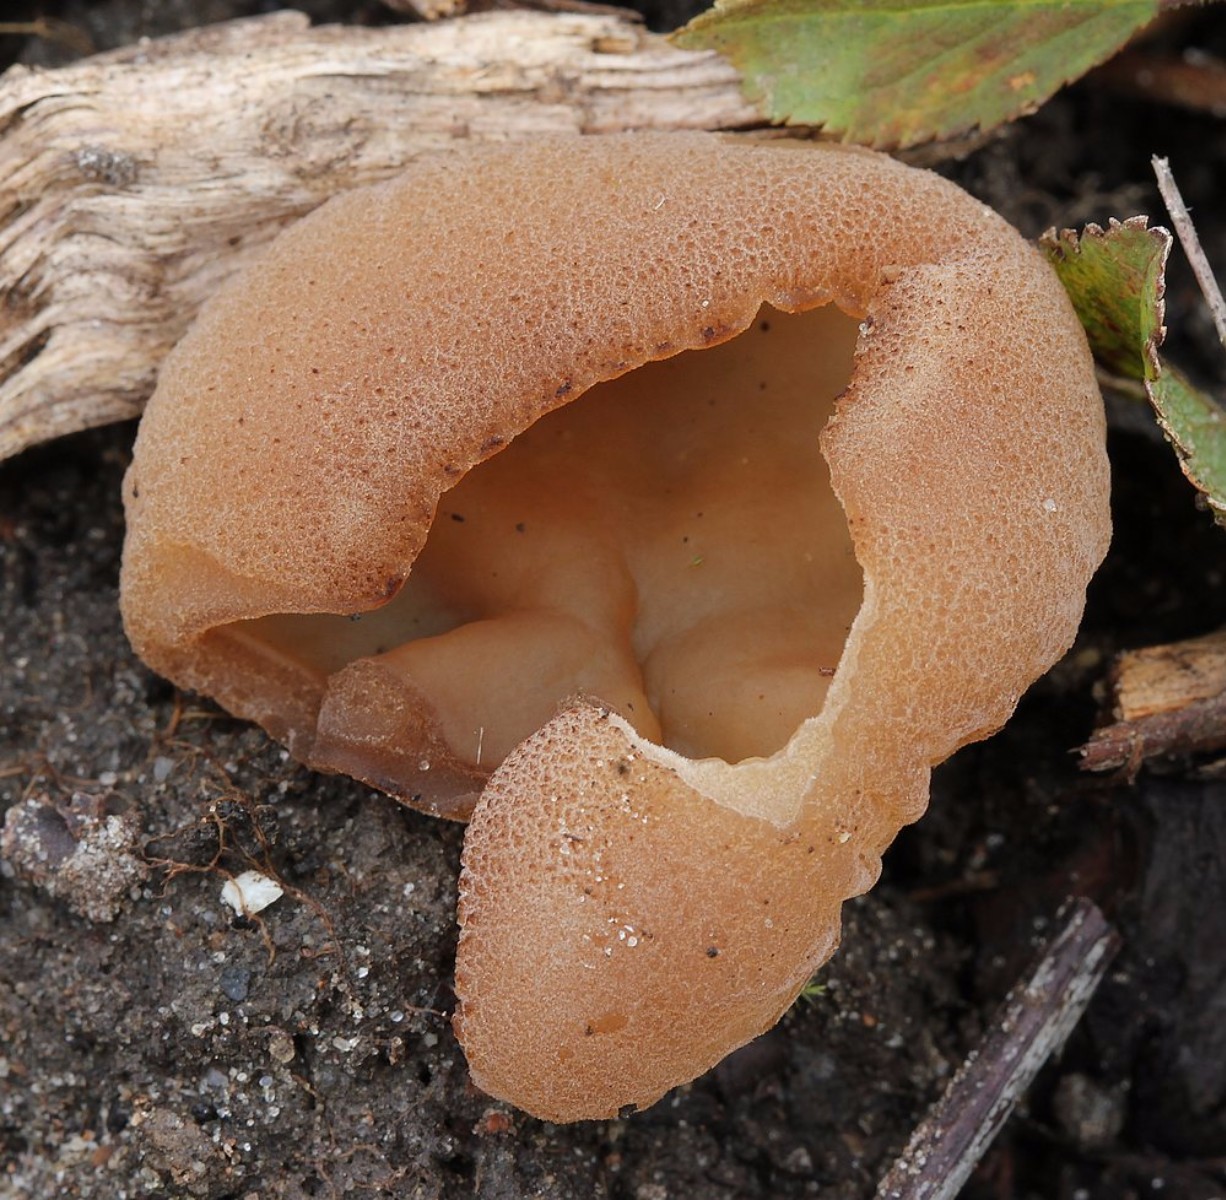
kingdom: Fungi
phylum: Ascomycota
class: Pezizomycetes
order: Pezizales
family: Pezizaceae
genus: Peziza
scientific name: Peziza
